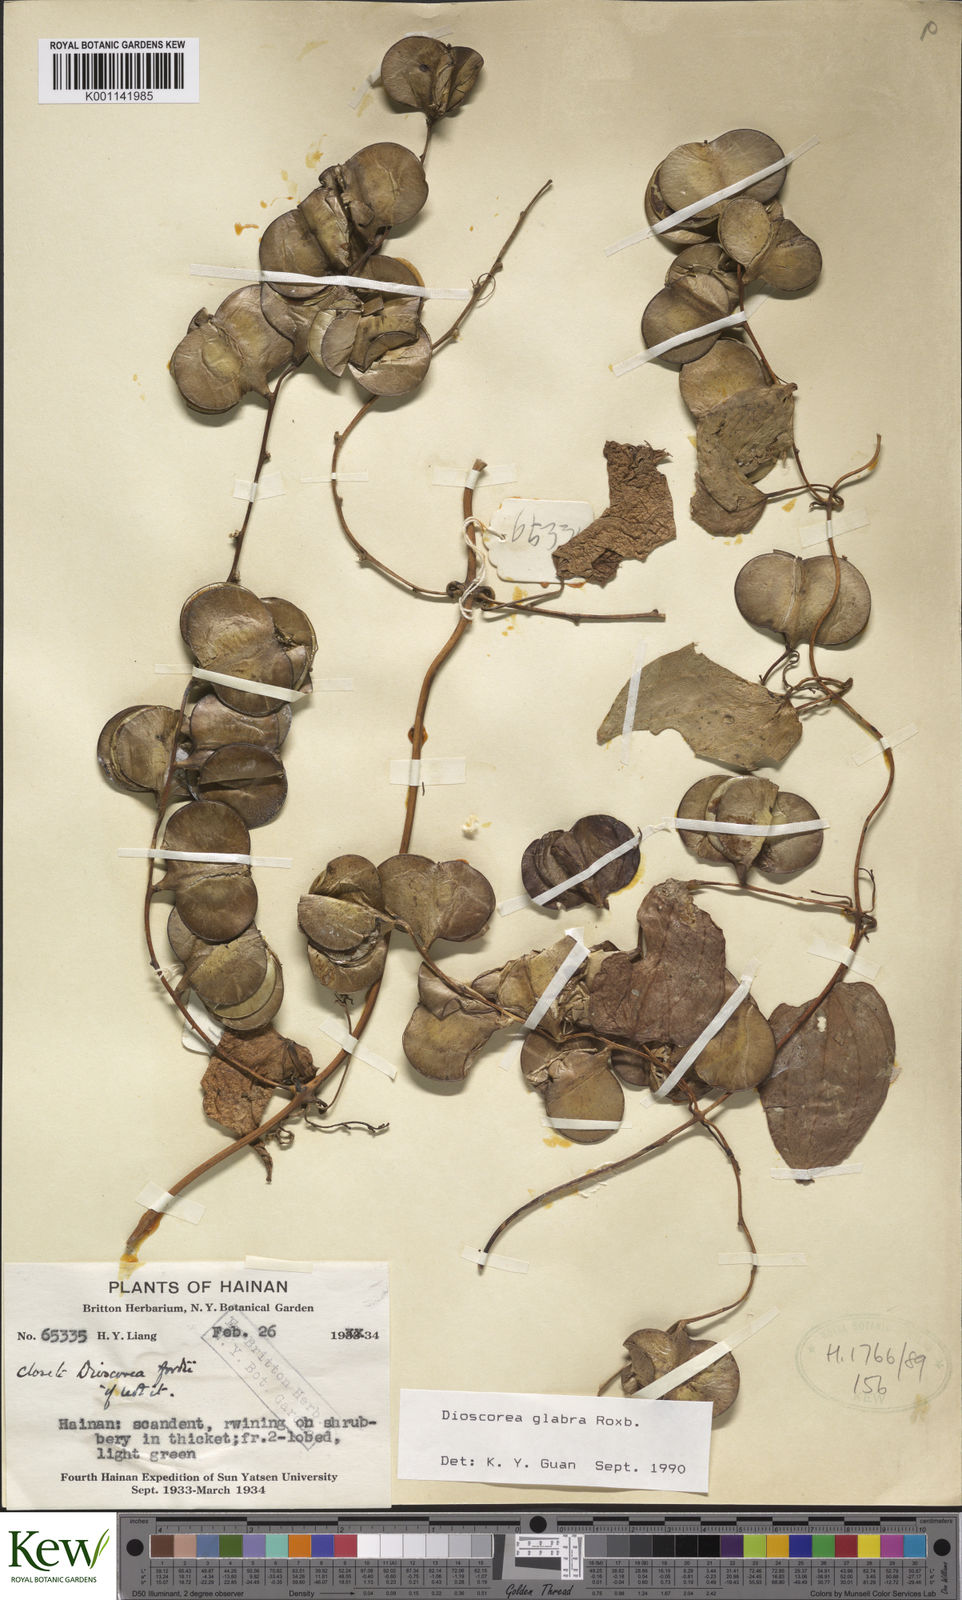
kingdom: Plantae
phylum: Tracheophyta
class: Liliopsida
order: Dioscoreales
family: Dioscoreaceae
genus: Dioscorea
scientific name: Dioscorea glabra
